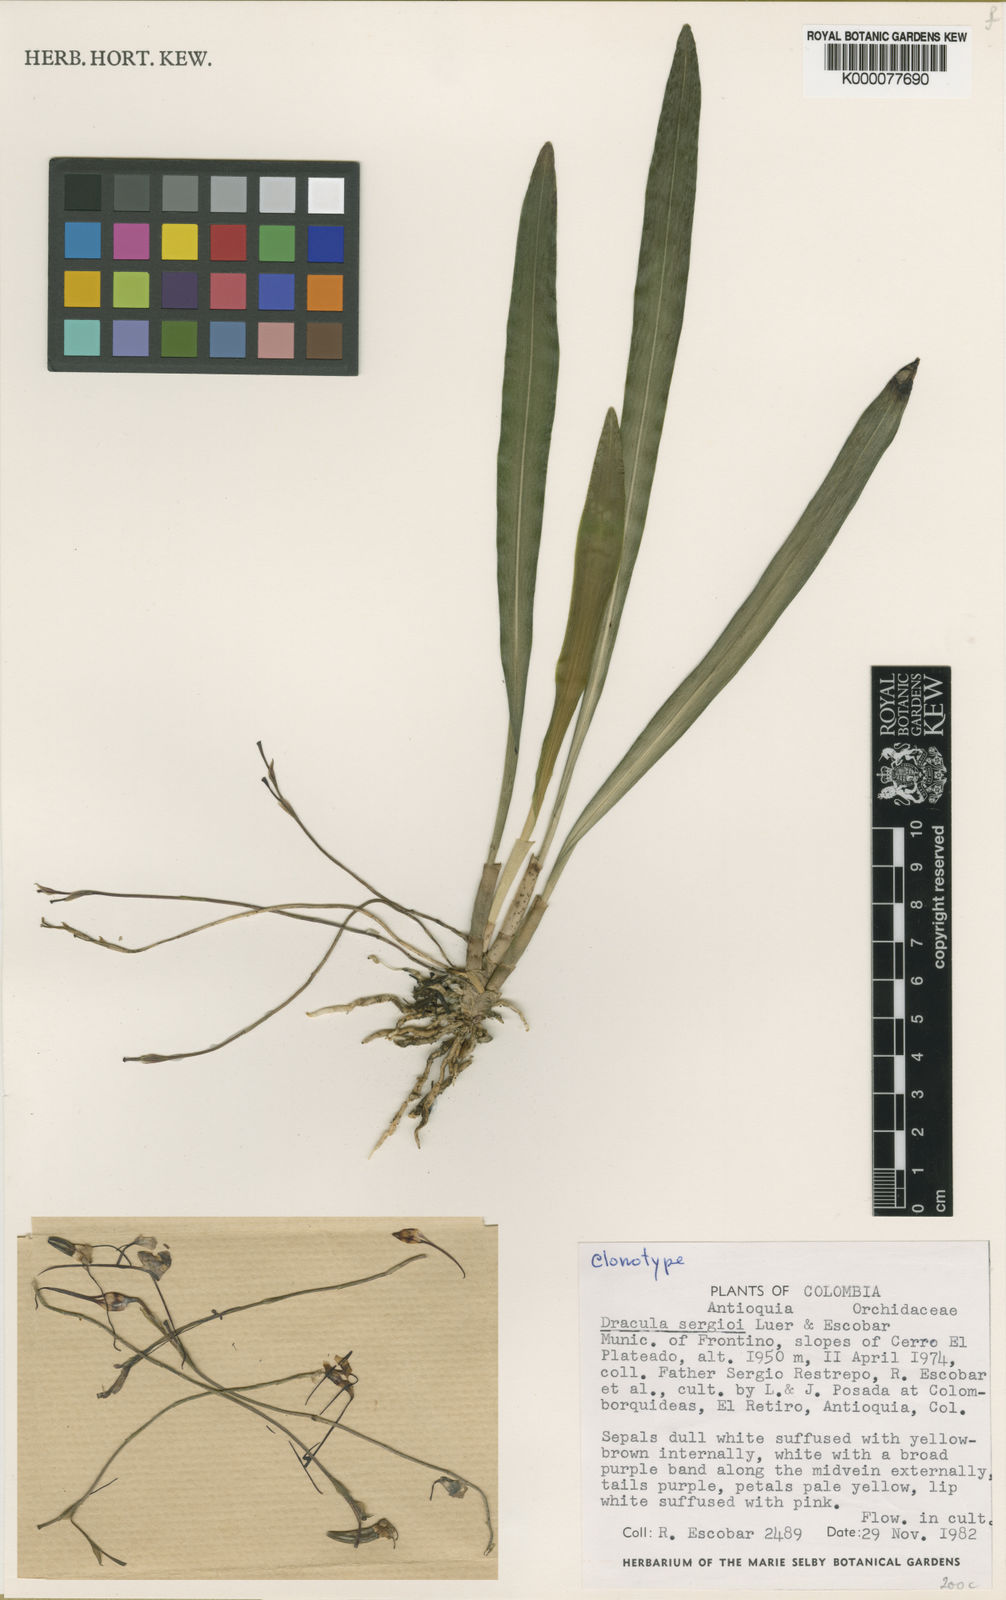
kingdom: Plantae
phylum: Tracheophyta
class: Liliopsida
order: Asparagales
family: Orchidaceae
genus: Dracula
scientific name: Dracula sergioi
